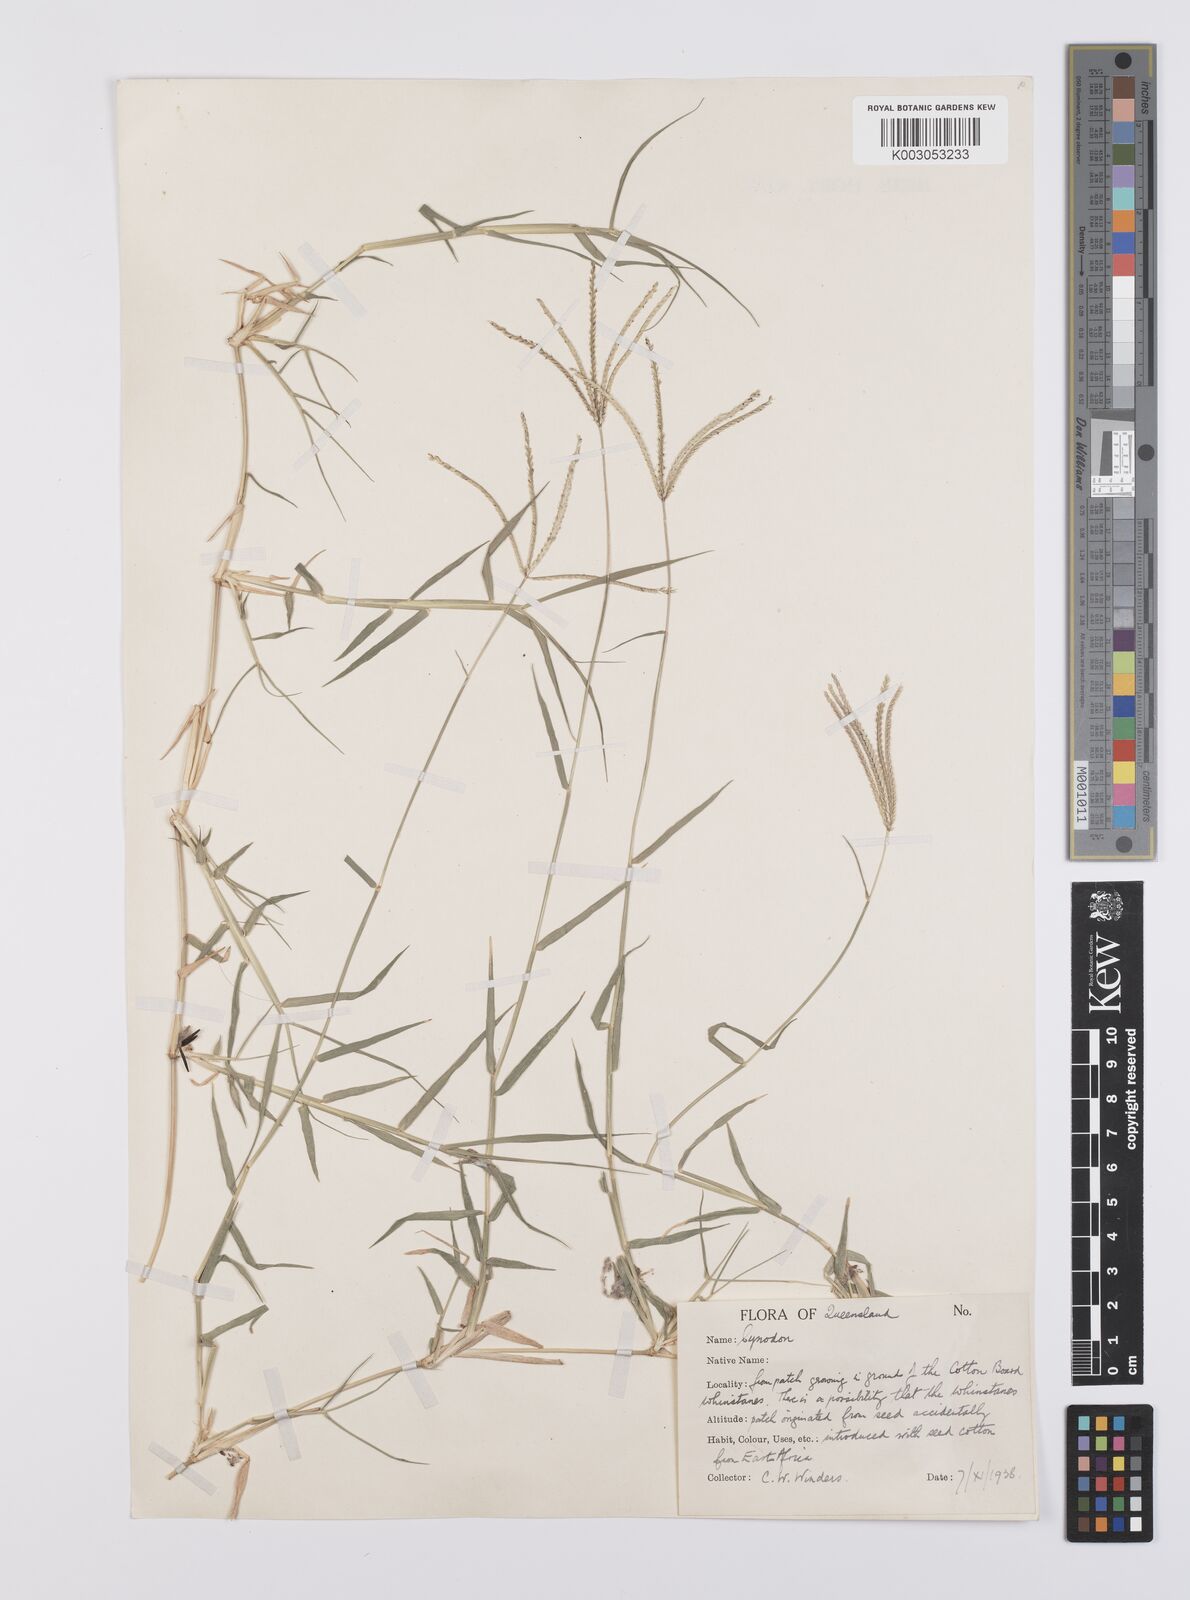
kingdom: Plantae
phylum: Tracheophyta
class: Liliopsida
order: Poales
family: Poaceae
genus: Cynodon
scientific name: Cynodon dactylon
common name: Bermuda grass
